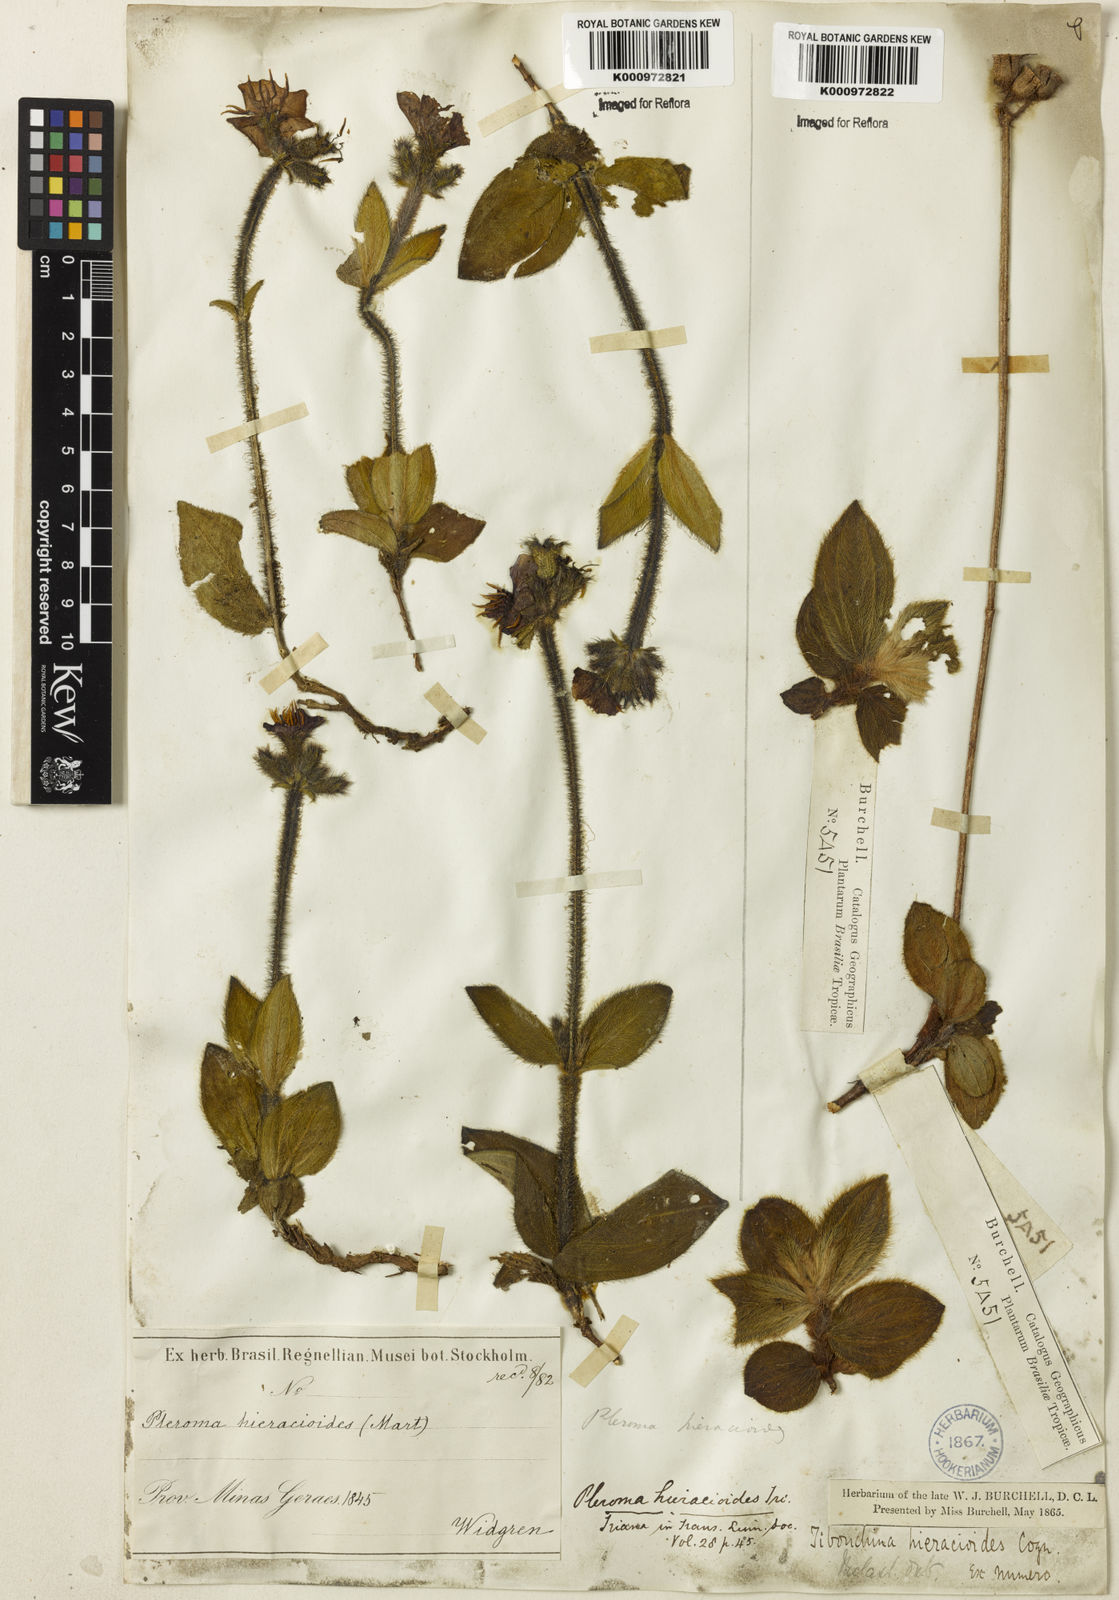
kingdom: Plantae
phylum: Tracheophyta
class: Magnoliopsida
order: Myrtales
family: Melastomataceae
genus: Chaetogastra
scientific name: Chaetogastra hieracioides
